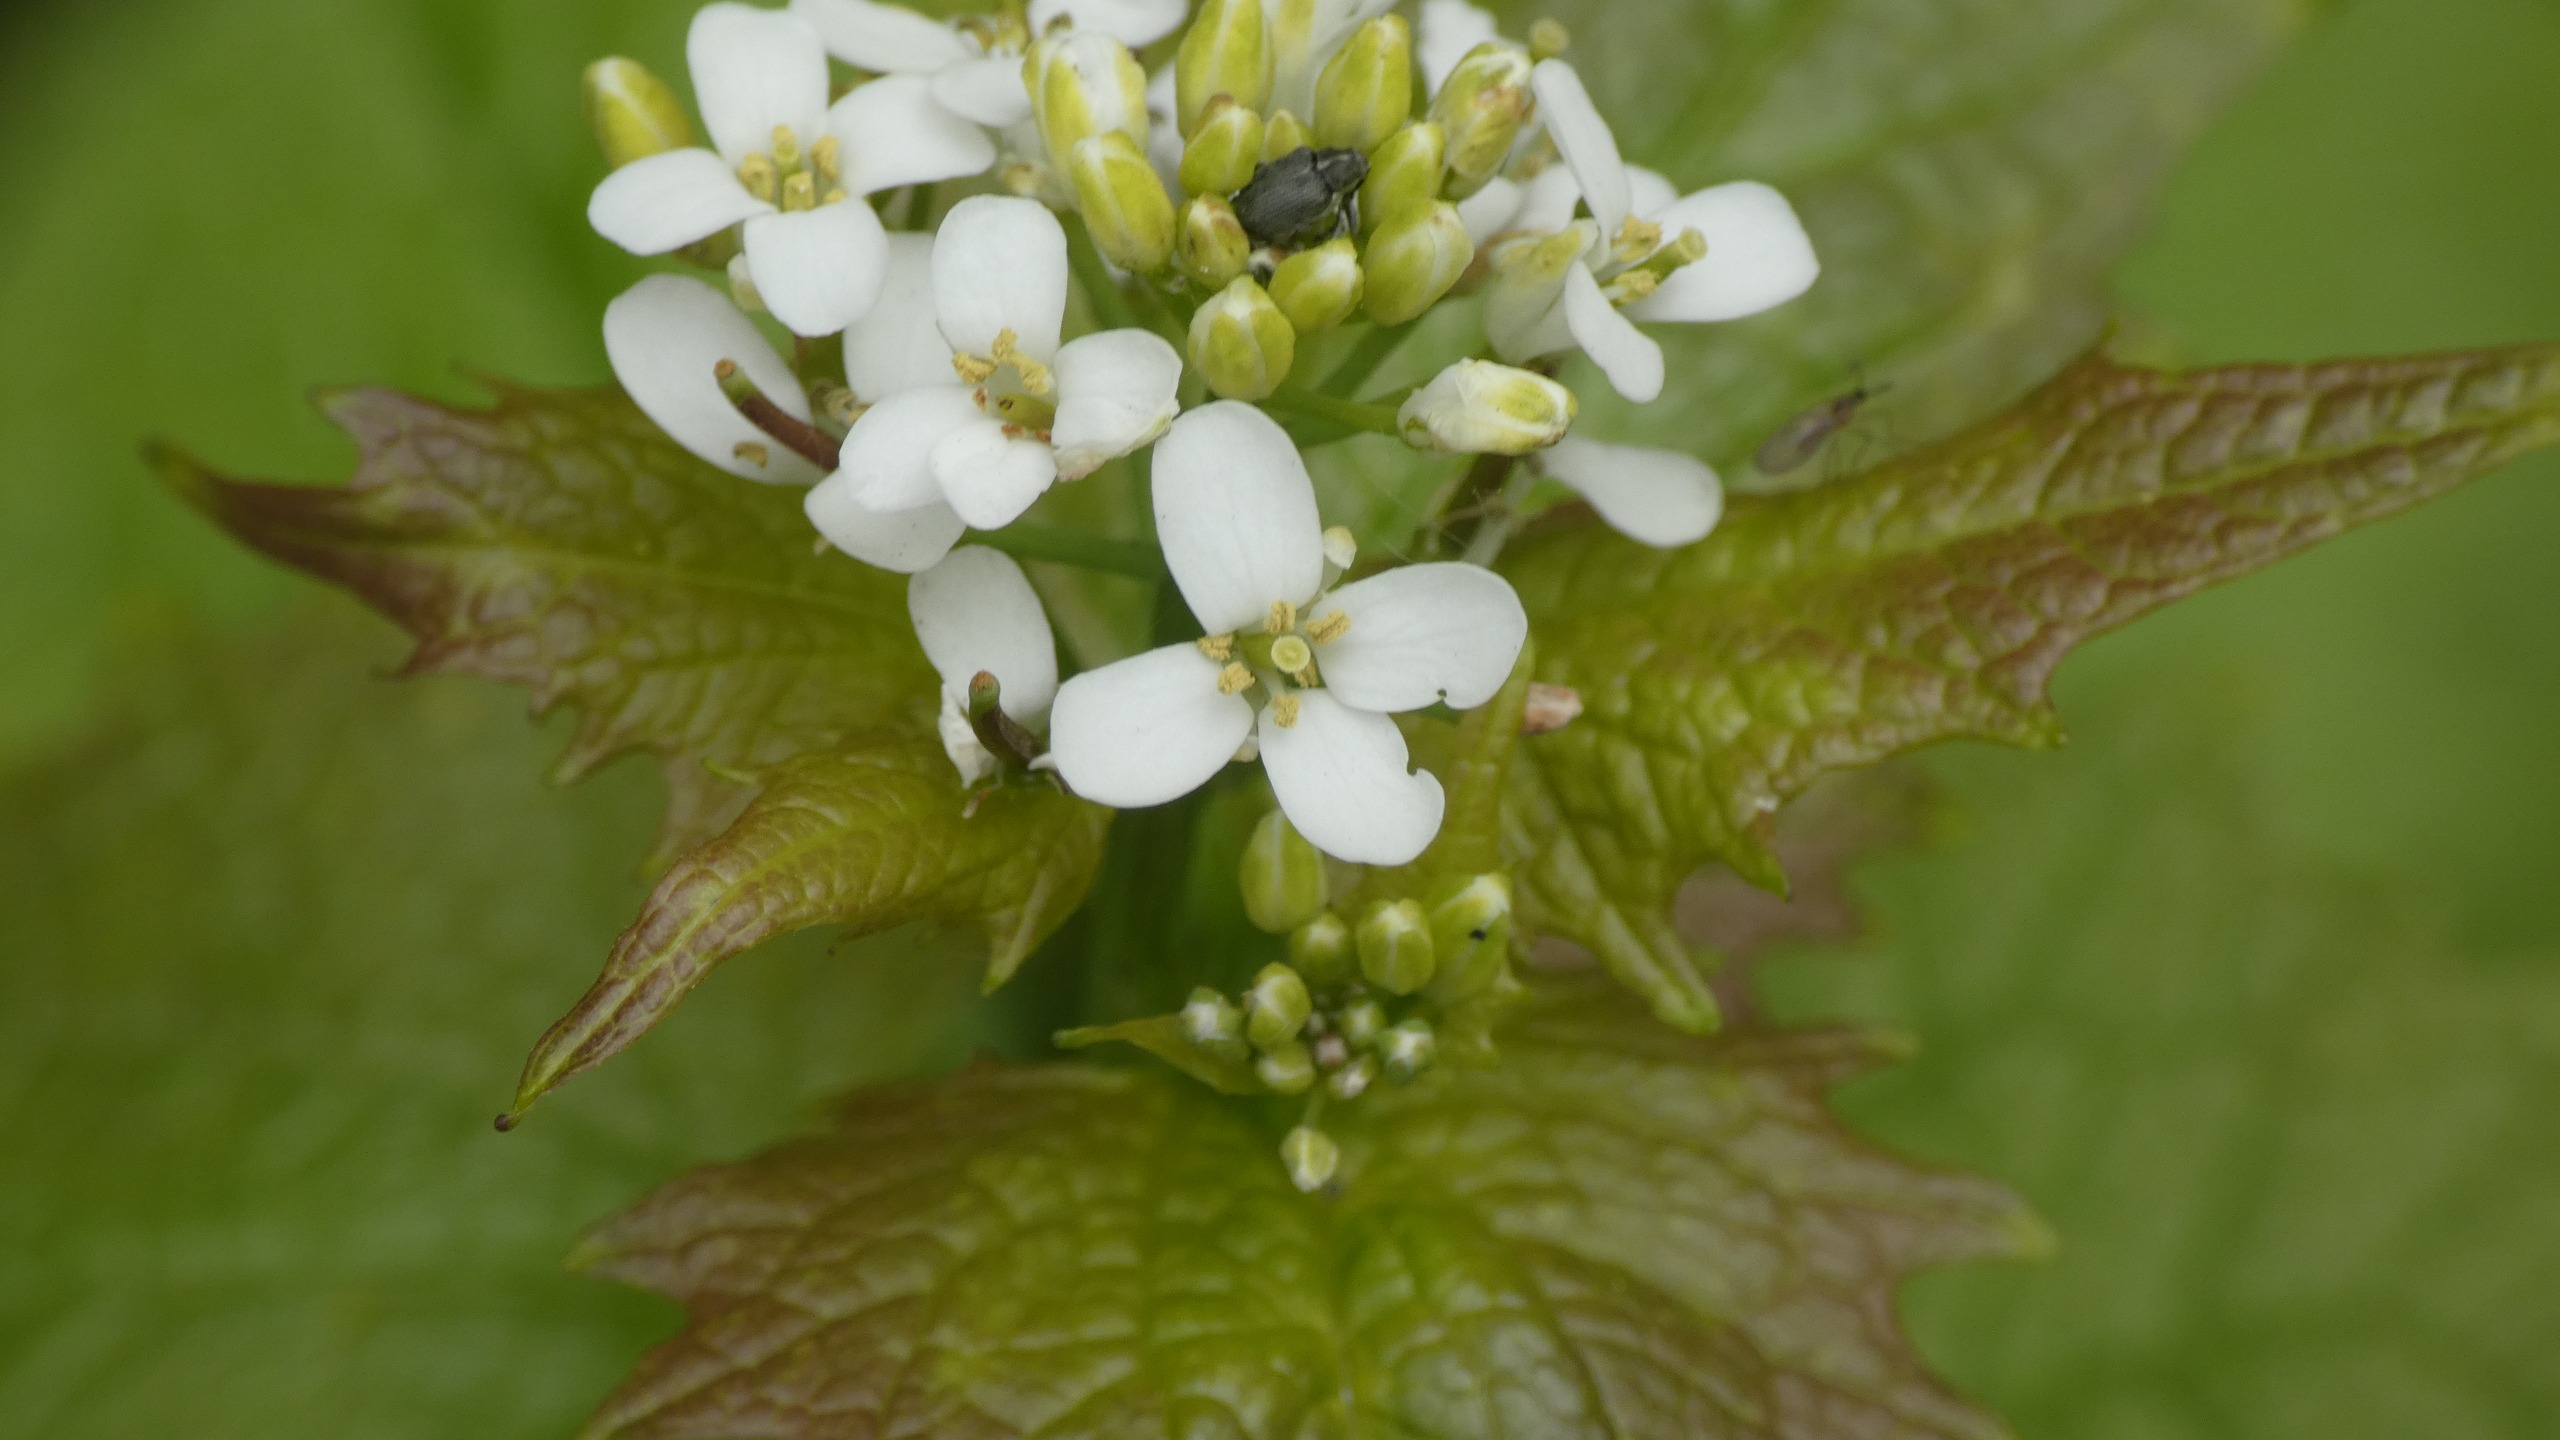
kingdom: Plantae
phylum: Tracheophyta
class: Magnoliopsida
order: Brassicales
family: Brassicaceae
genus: Alliaria
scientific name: Alliaria petiolata
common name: Løgkarse
